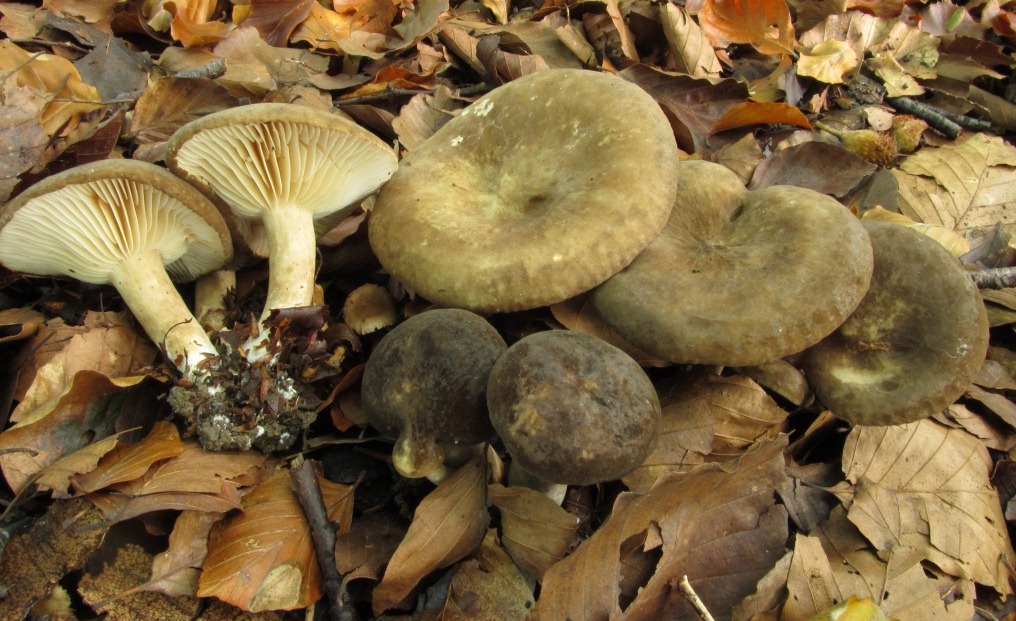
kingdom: Fungi
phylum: Basidiomycota
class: Agaricomycetes
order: Russulales
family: Russulaceae
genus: Lactarius
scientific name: Lactarius romagnesii
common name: fjernbladet mælkehat
